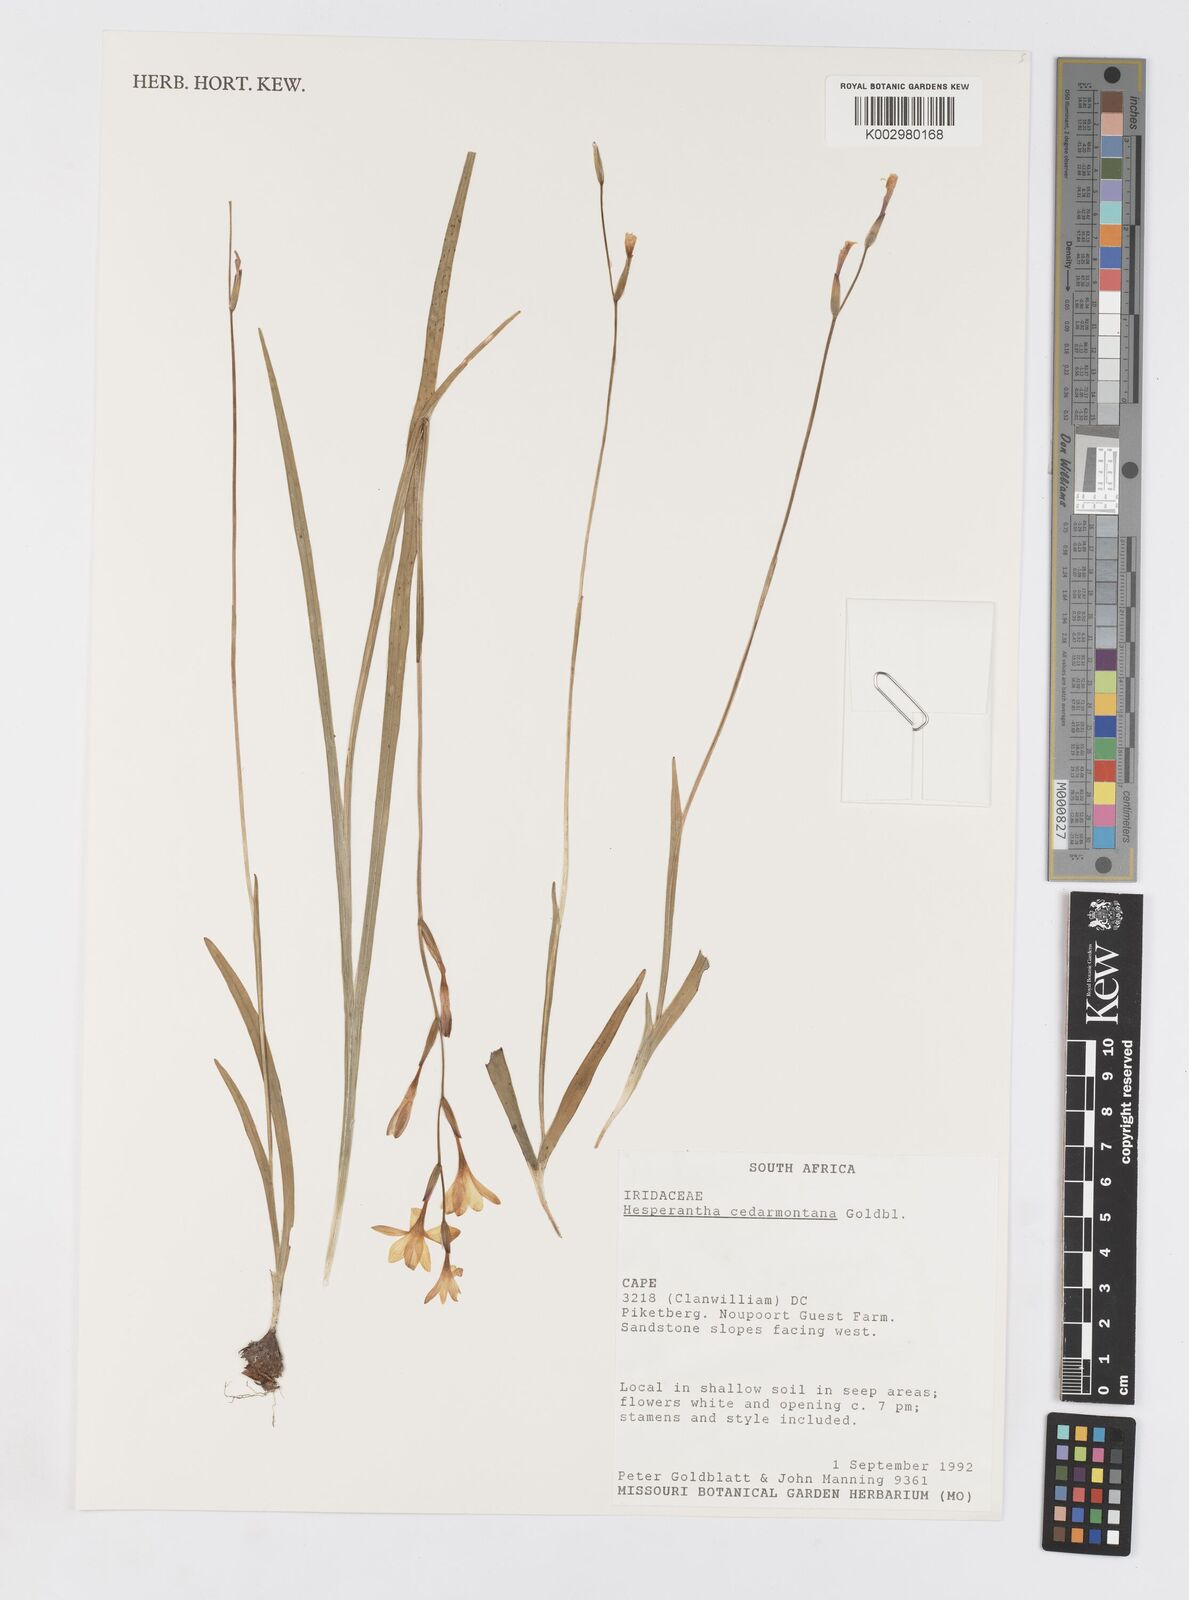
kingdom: Plantae
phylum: Tracheophyta
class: Liliopsida
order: Asparagales
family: Iridaceae
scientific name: Iridaceae
